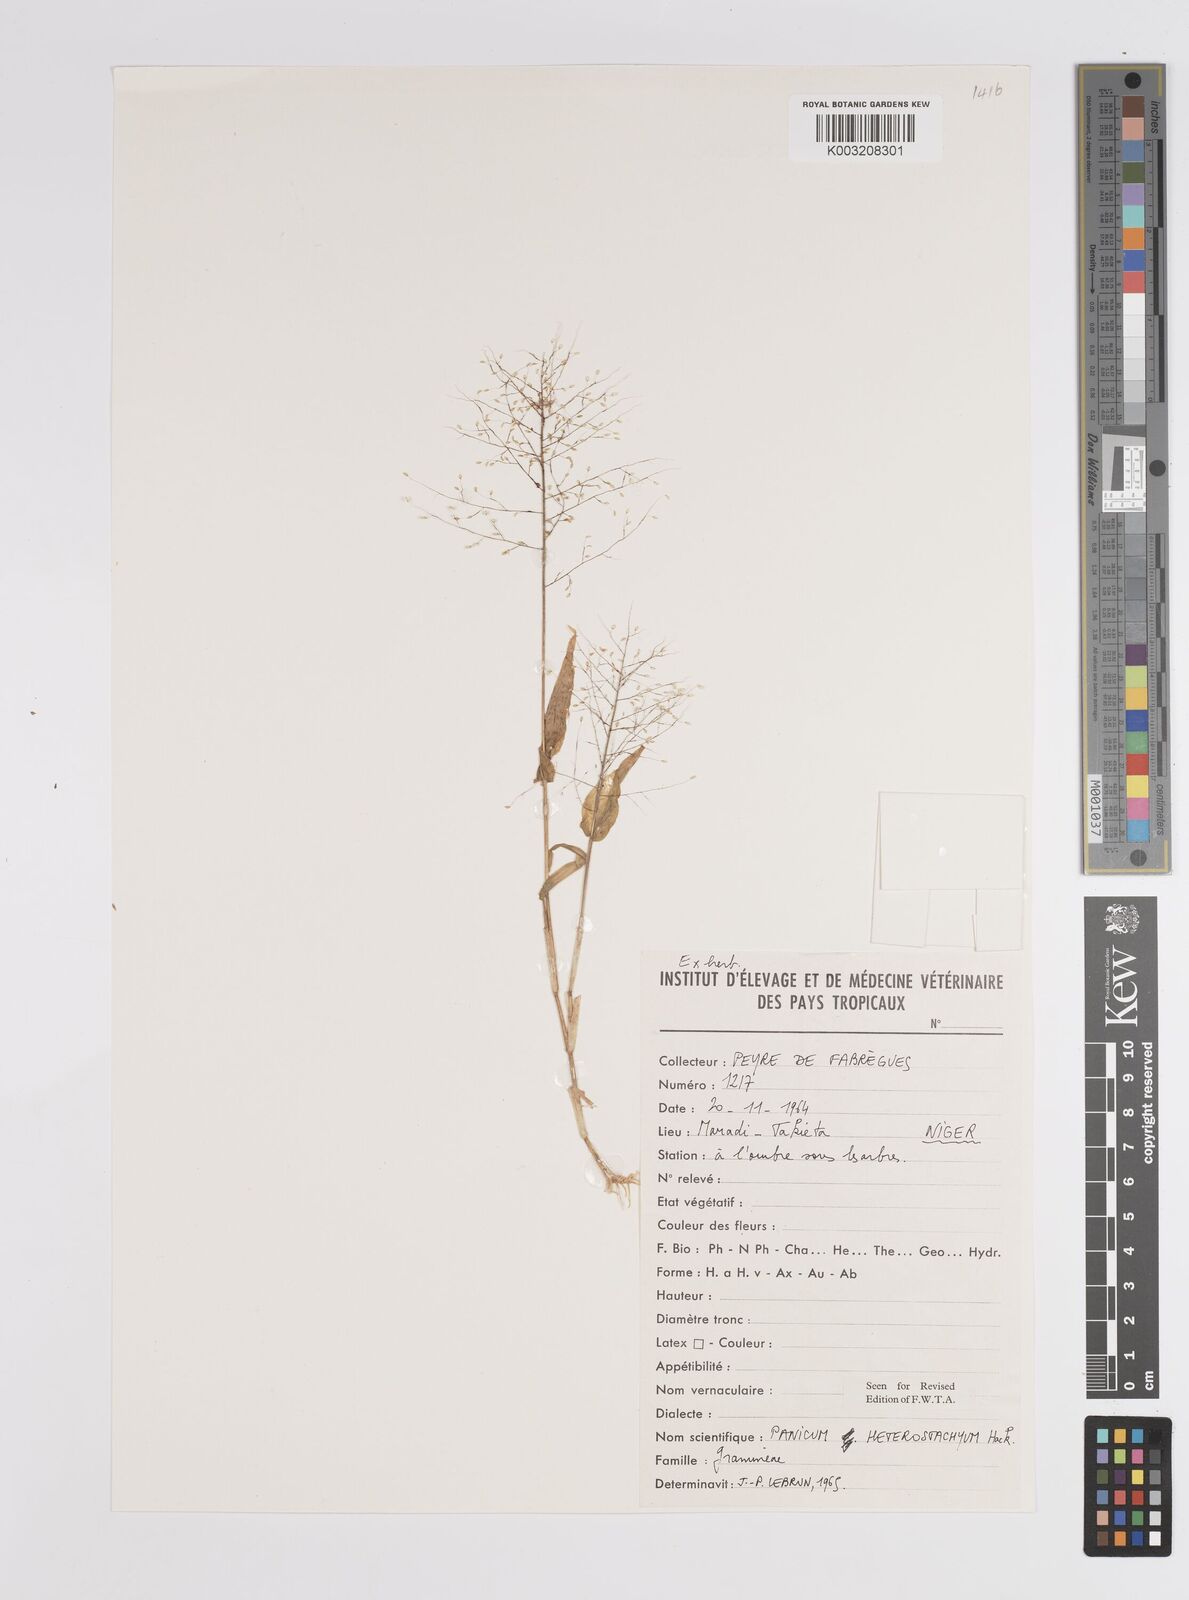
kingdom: Plantae
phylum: Tracheophyta
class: Liliopsida
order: Poales
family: Poaceae
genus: Panicum
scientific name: Panicum hirtum
